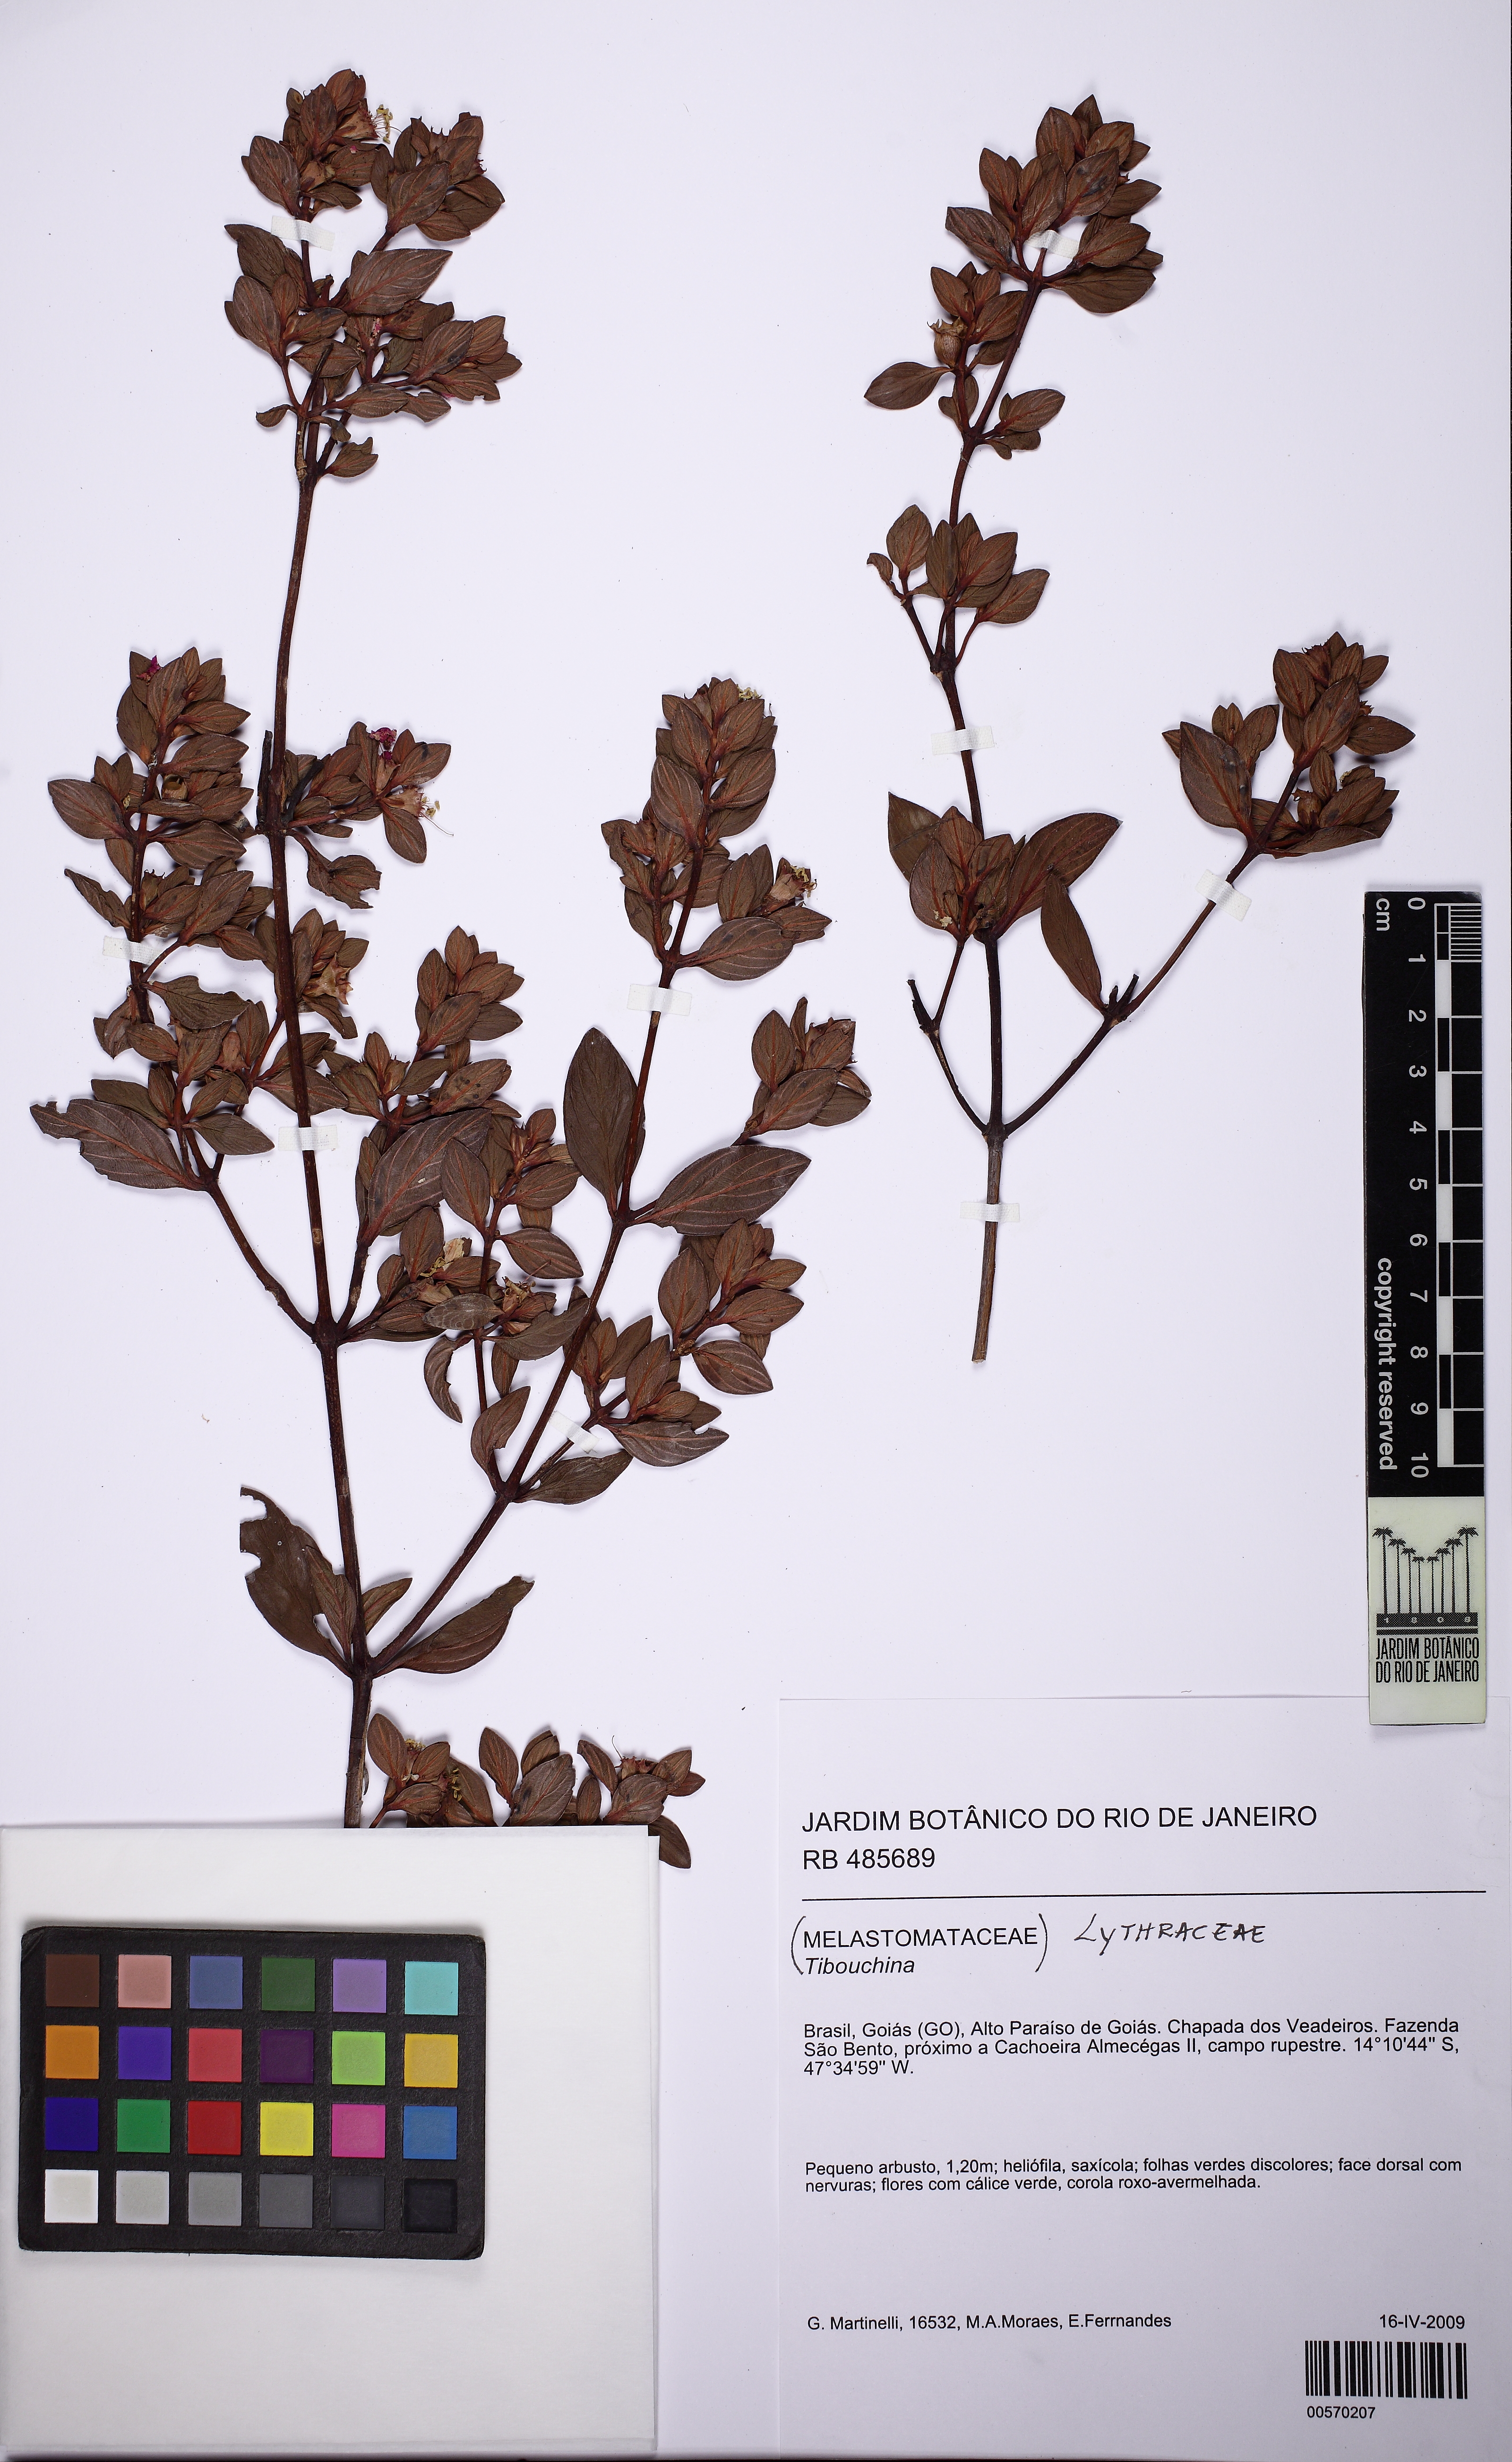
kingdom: Plantae
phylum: Tracheophyta
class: Magnoliopsida
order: Myrtales
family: Lythraceae
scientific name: Lythraceae
